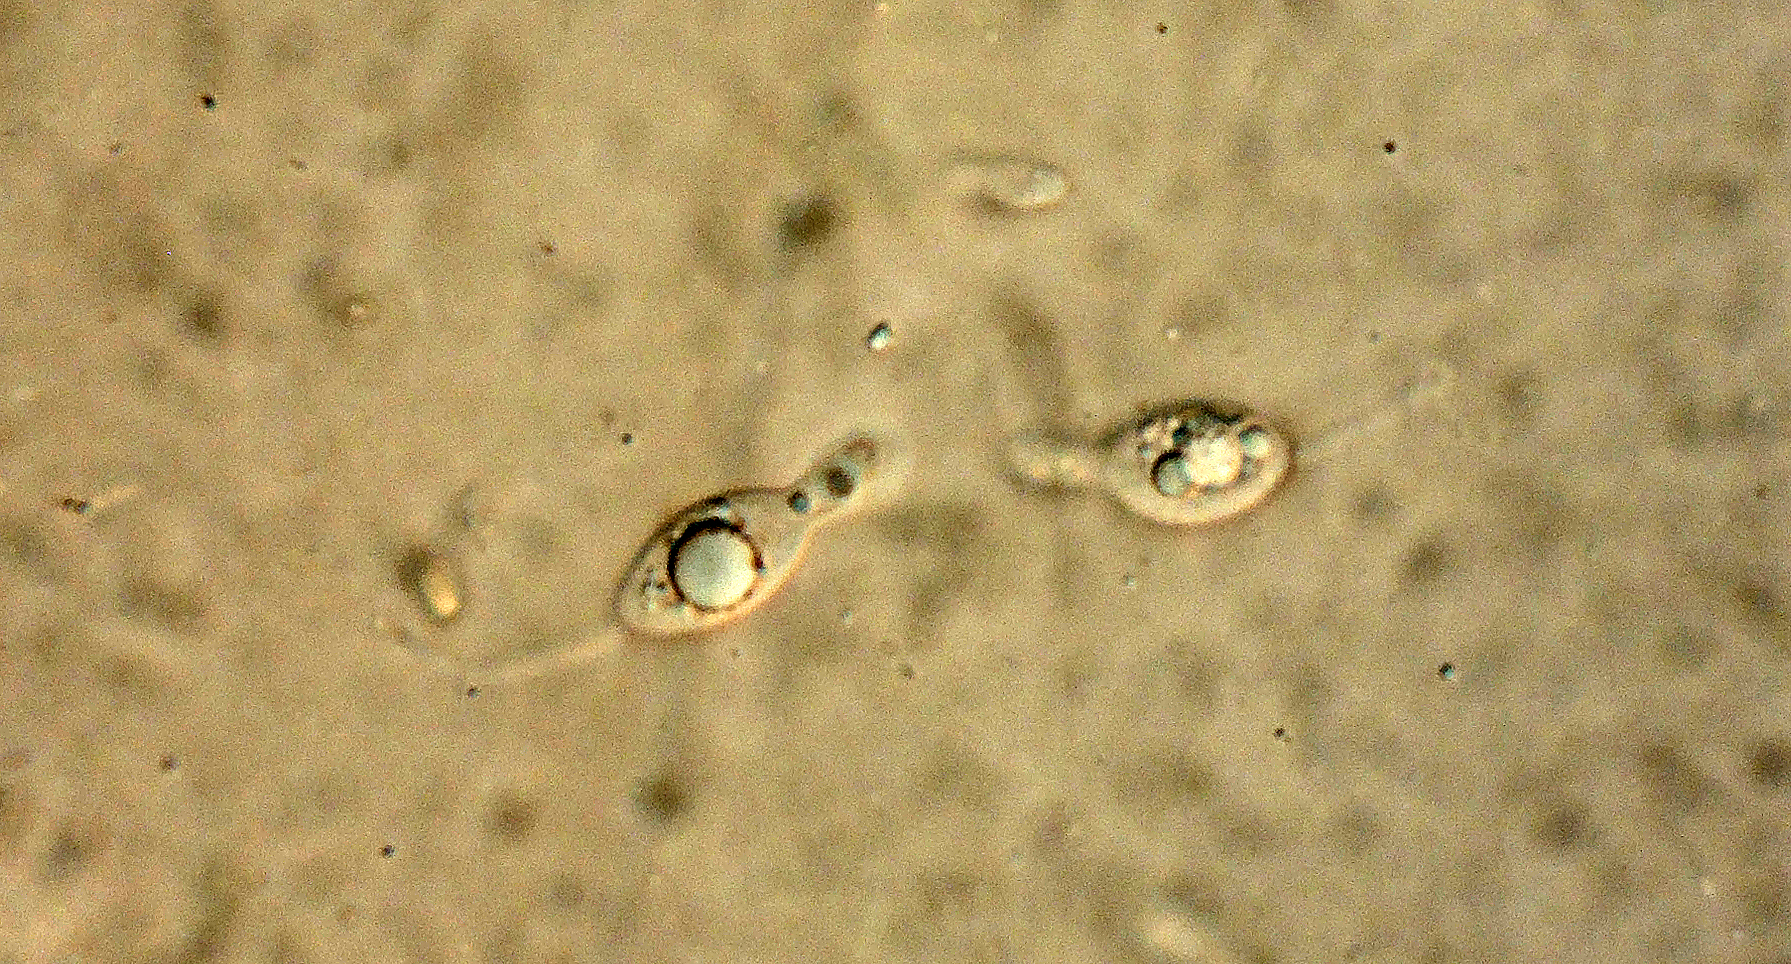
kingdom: Fungi
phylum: Ascomycota
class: Sordariomycetes
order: Sordariales
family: Schizotheciaceae
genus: Pseudoechria
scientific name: Pseudoechria curvicolla
